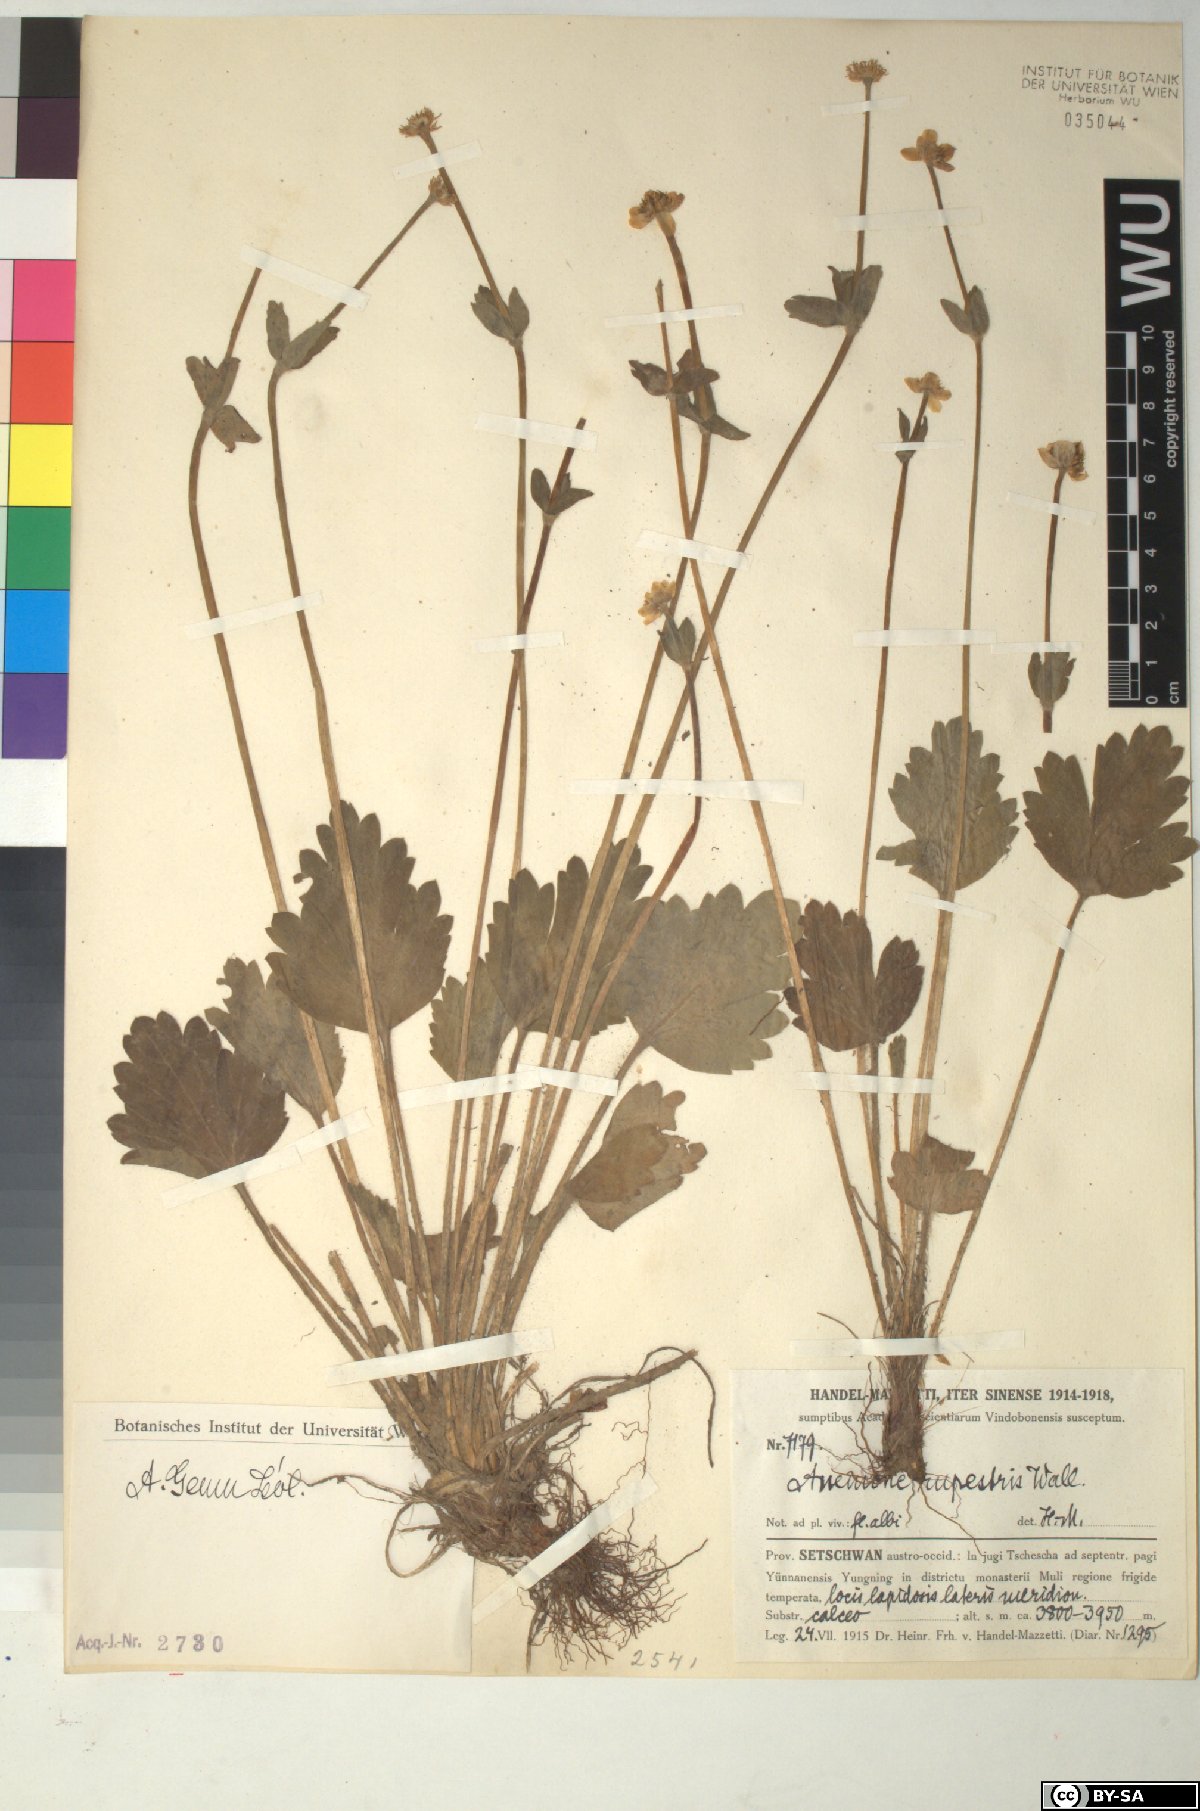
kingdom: Plantae
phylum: Tracheophyta
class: Magnoliopsida
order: Ranunculales
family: Ranunculaceae
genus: Anemonastrum
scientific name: Anemonastrum geum
